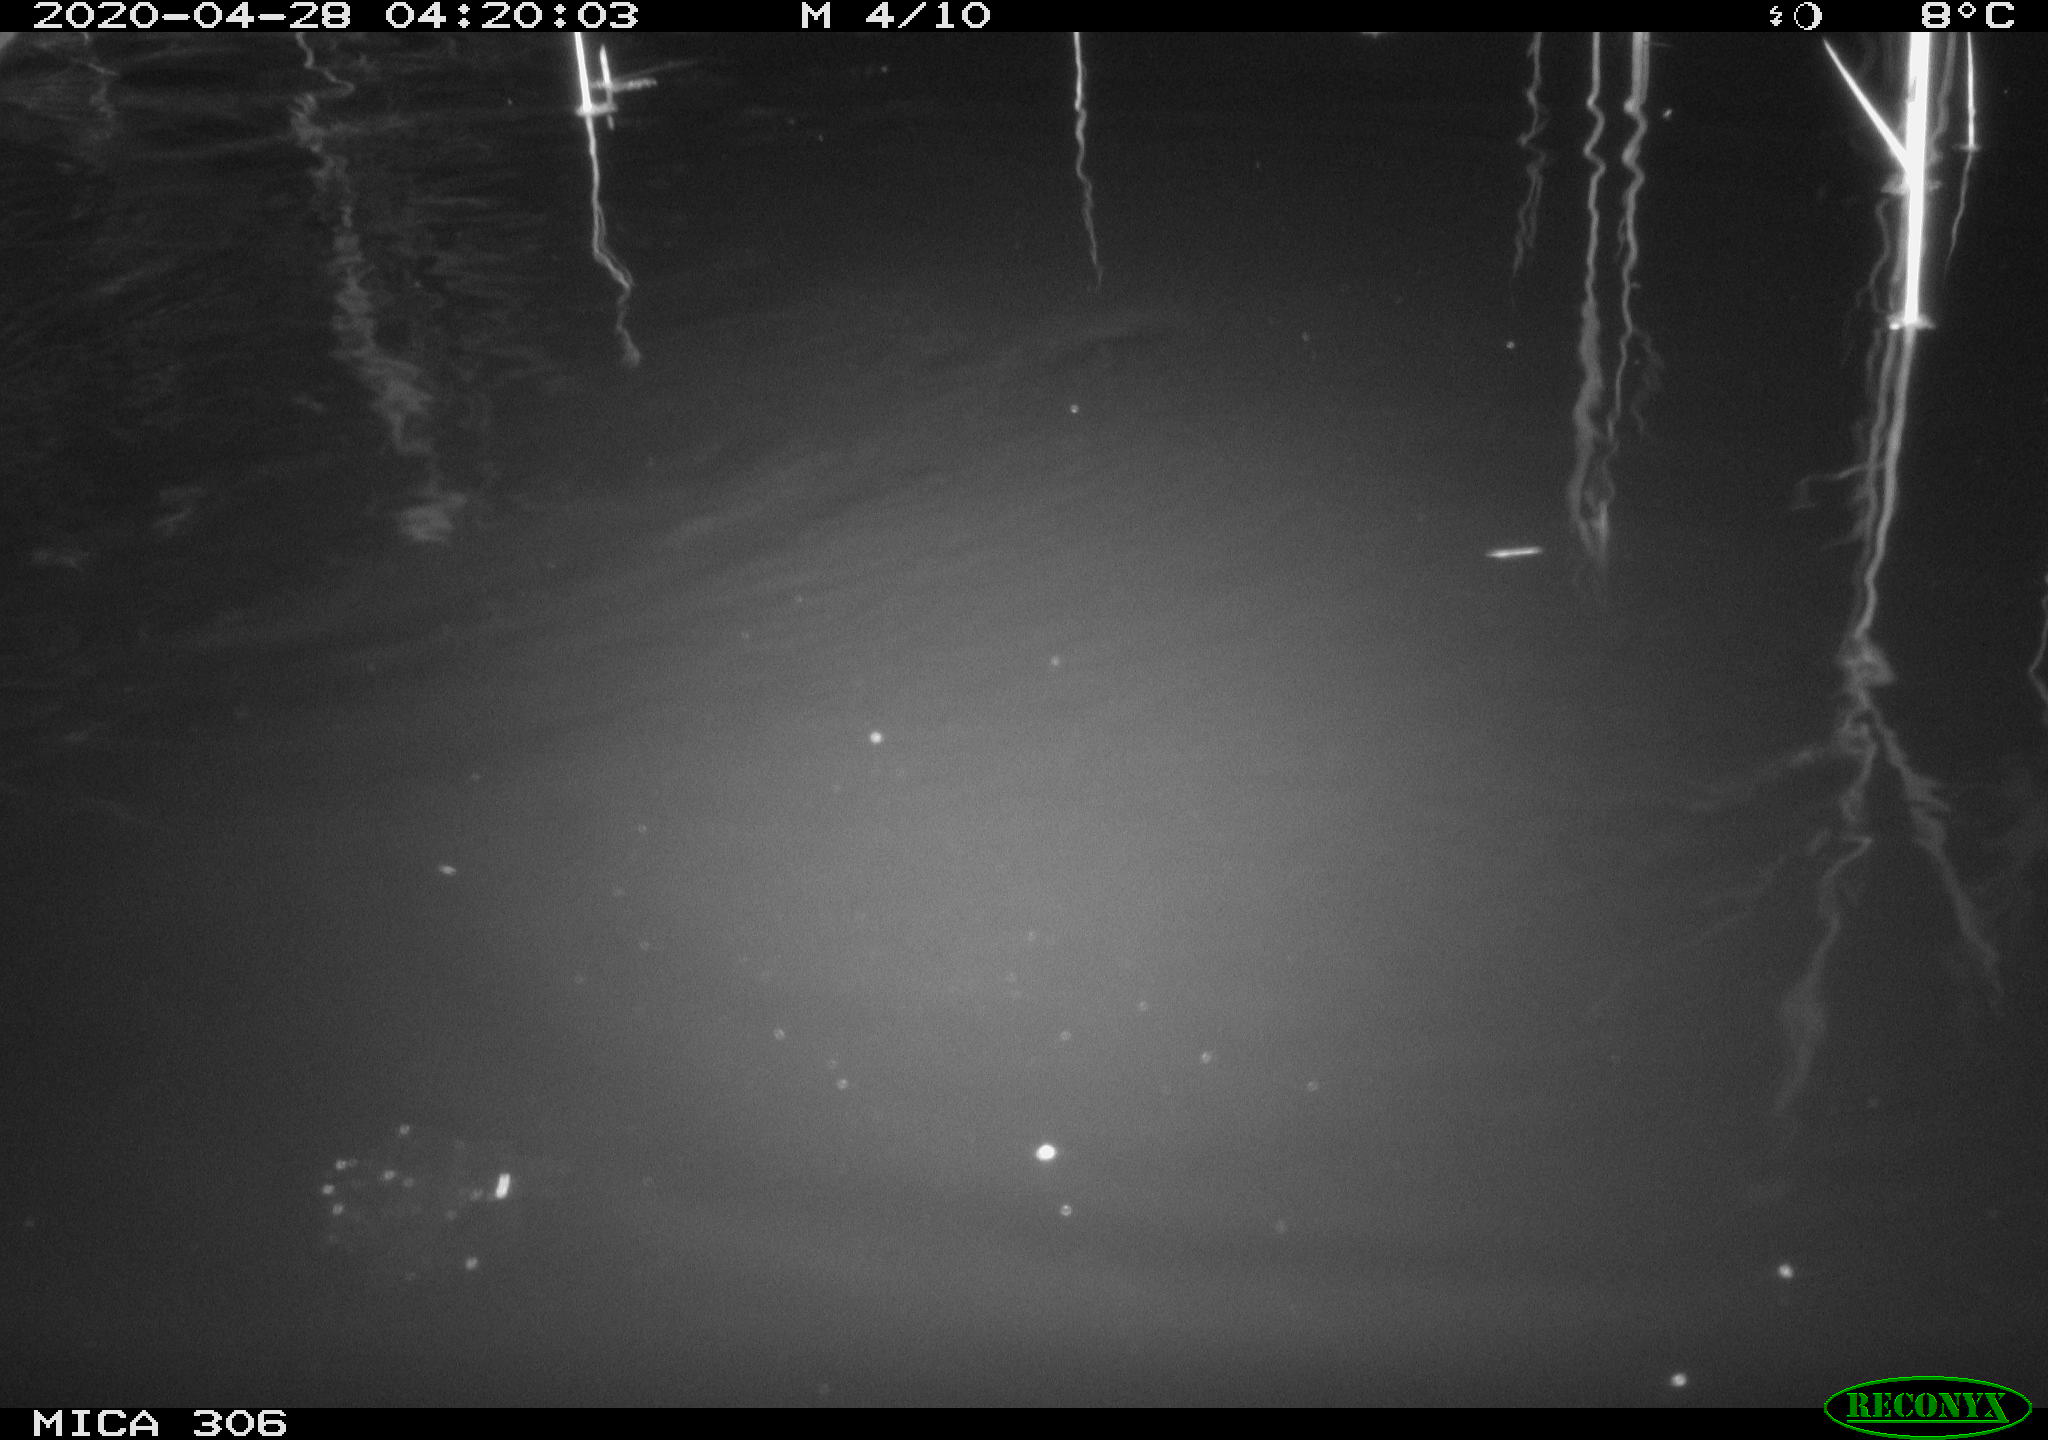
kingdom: Animalia
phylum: Chordata
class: Mammalia
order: Rodentia
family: Cricetidae
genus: Ondatra
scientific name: Ondatra zibethicus
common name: Muskrat
